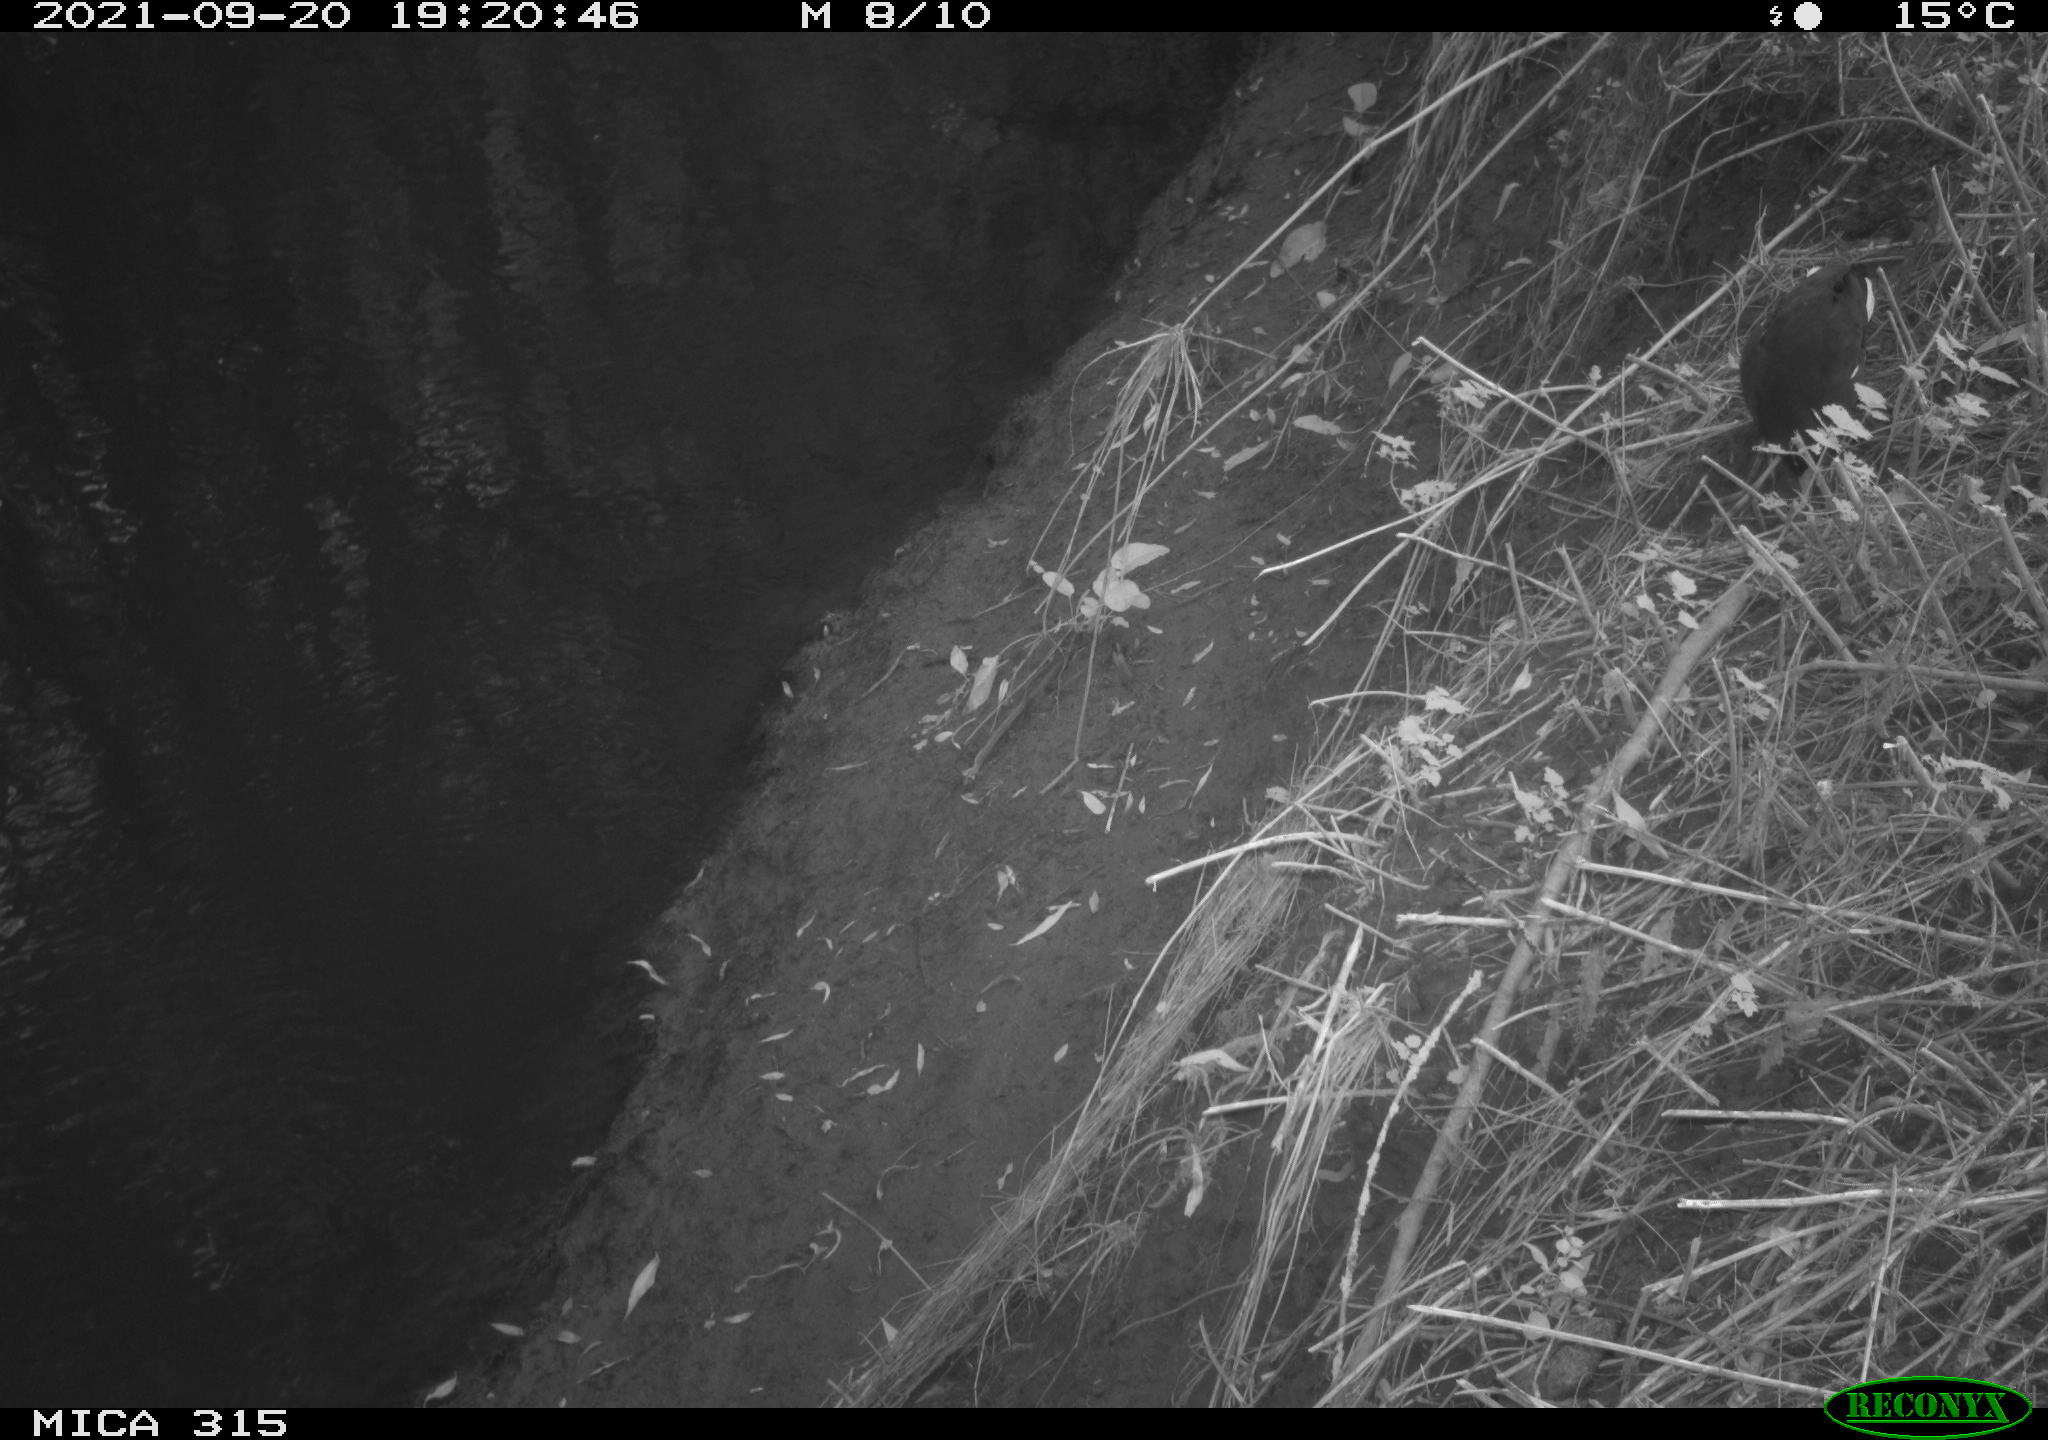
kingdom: Animalia
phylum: Chordata
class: Aves
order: Gruiformes
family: Rallidae
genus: Gallinula
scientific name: Gallinula chloropus
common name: Common moorhen
